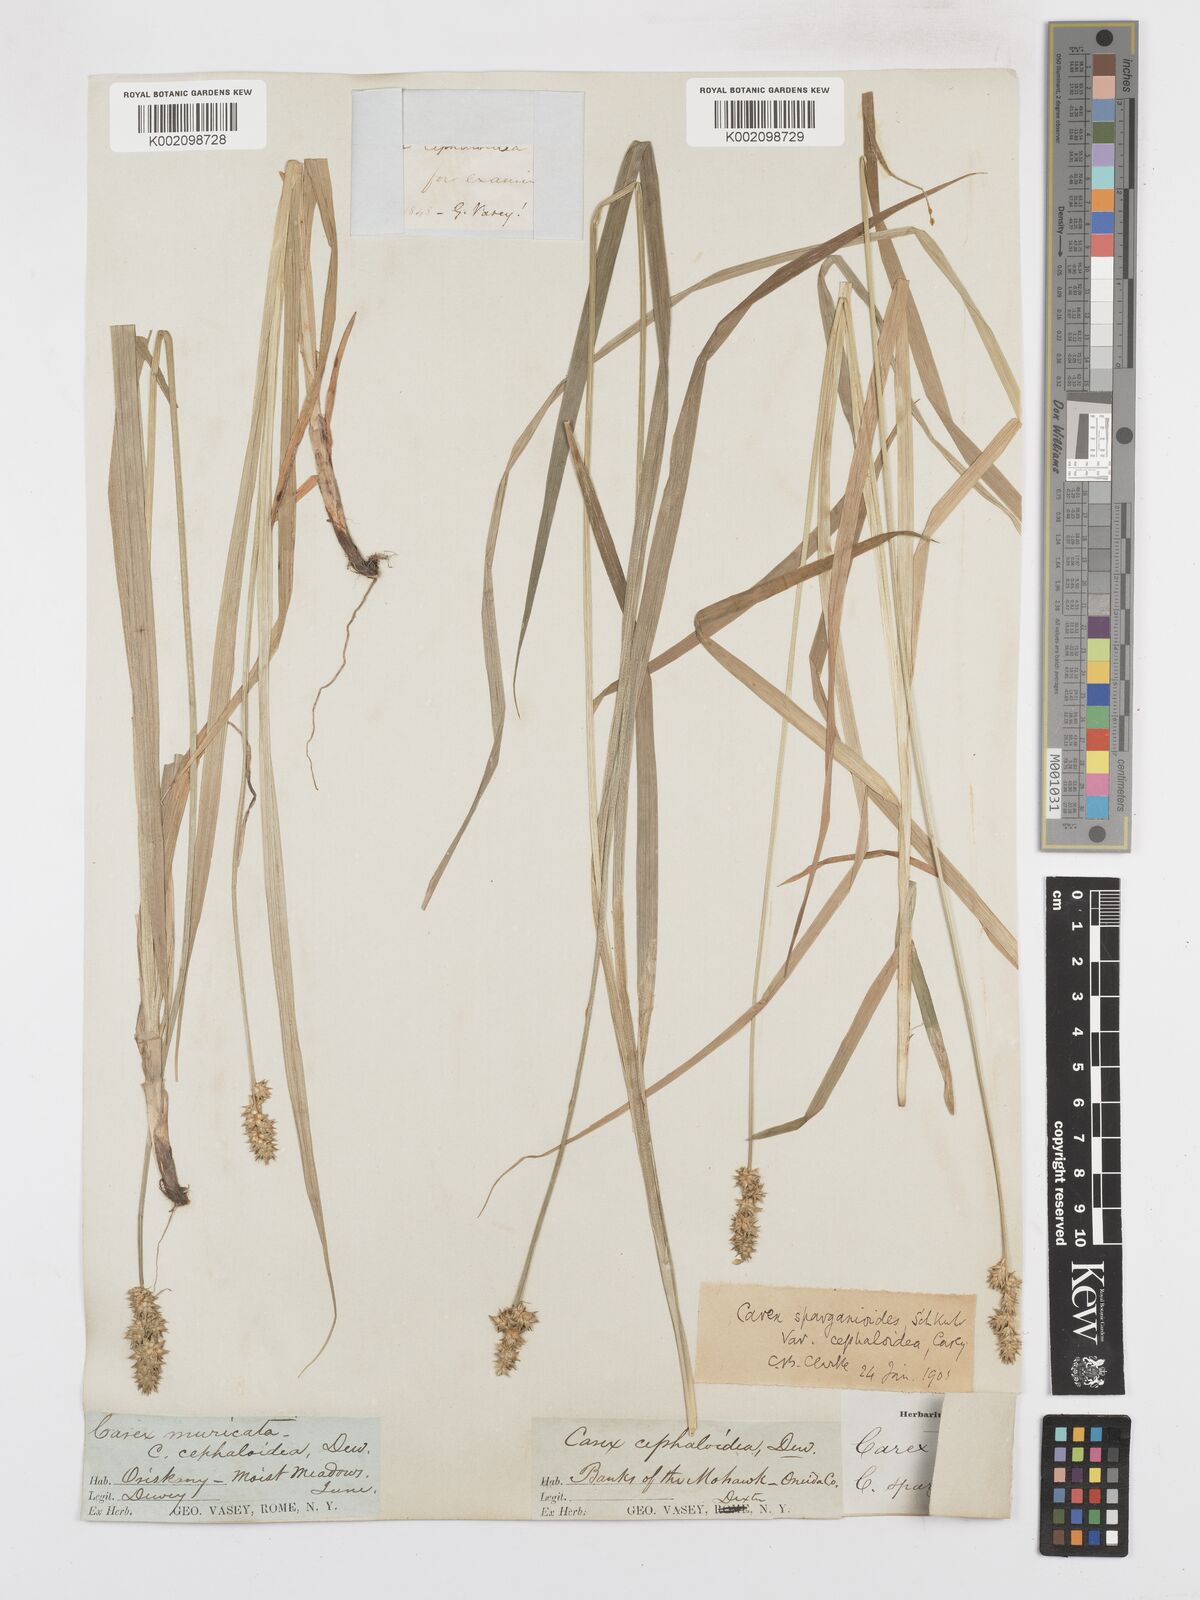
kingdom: Plantae
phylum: Tracheophyta
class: Liliopsida
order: Poales
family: Cyperaceae
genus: Carex
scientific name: Carex cephaloidea
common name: Thin-leaved sedge
